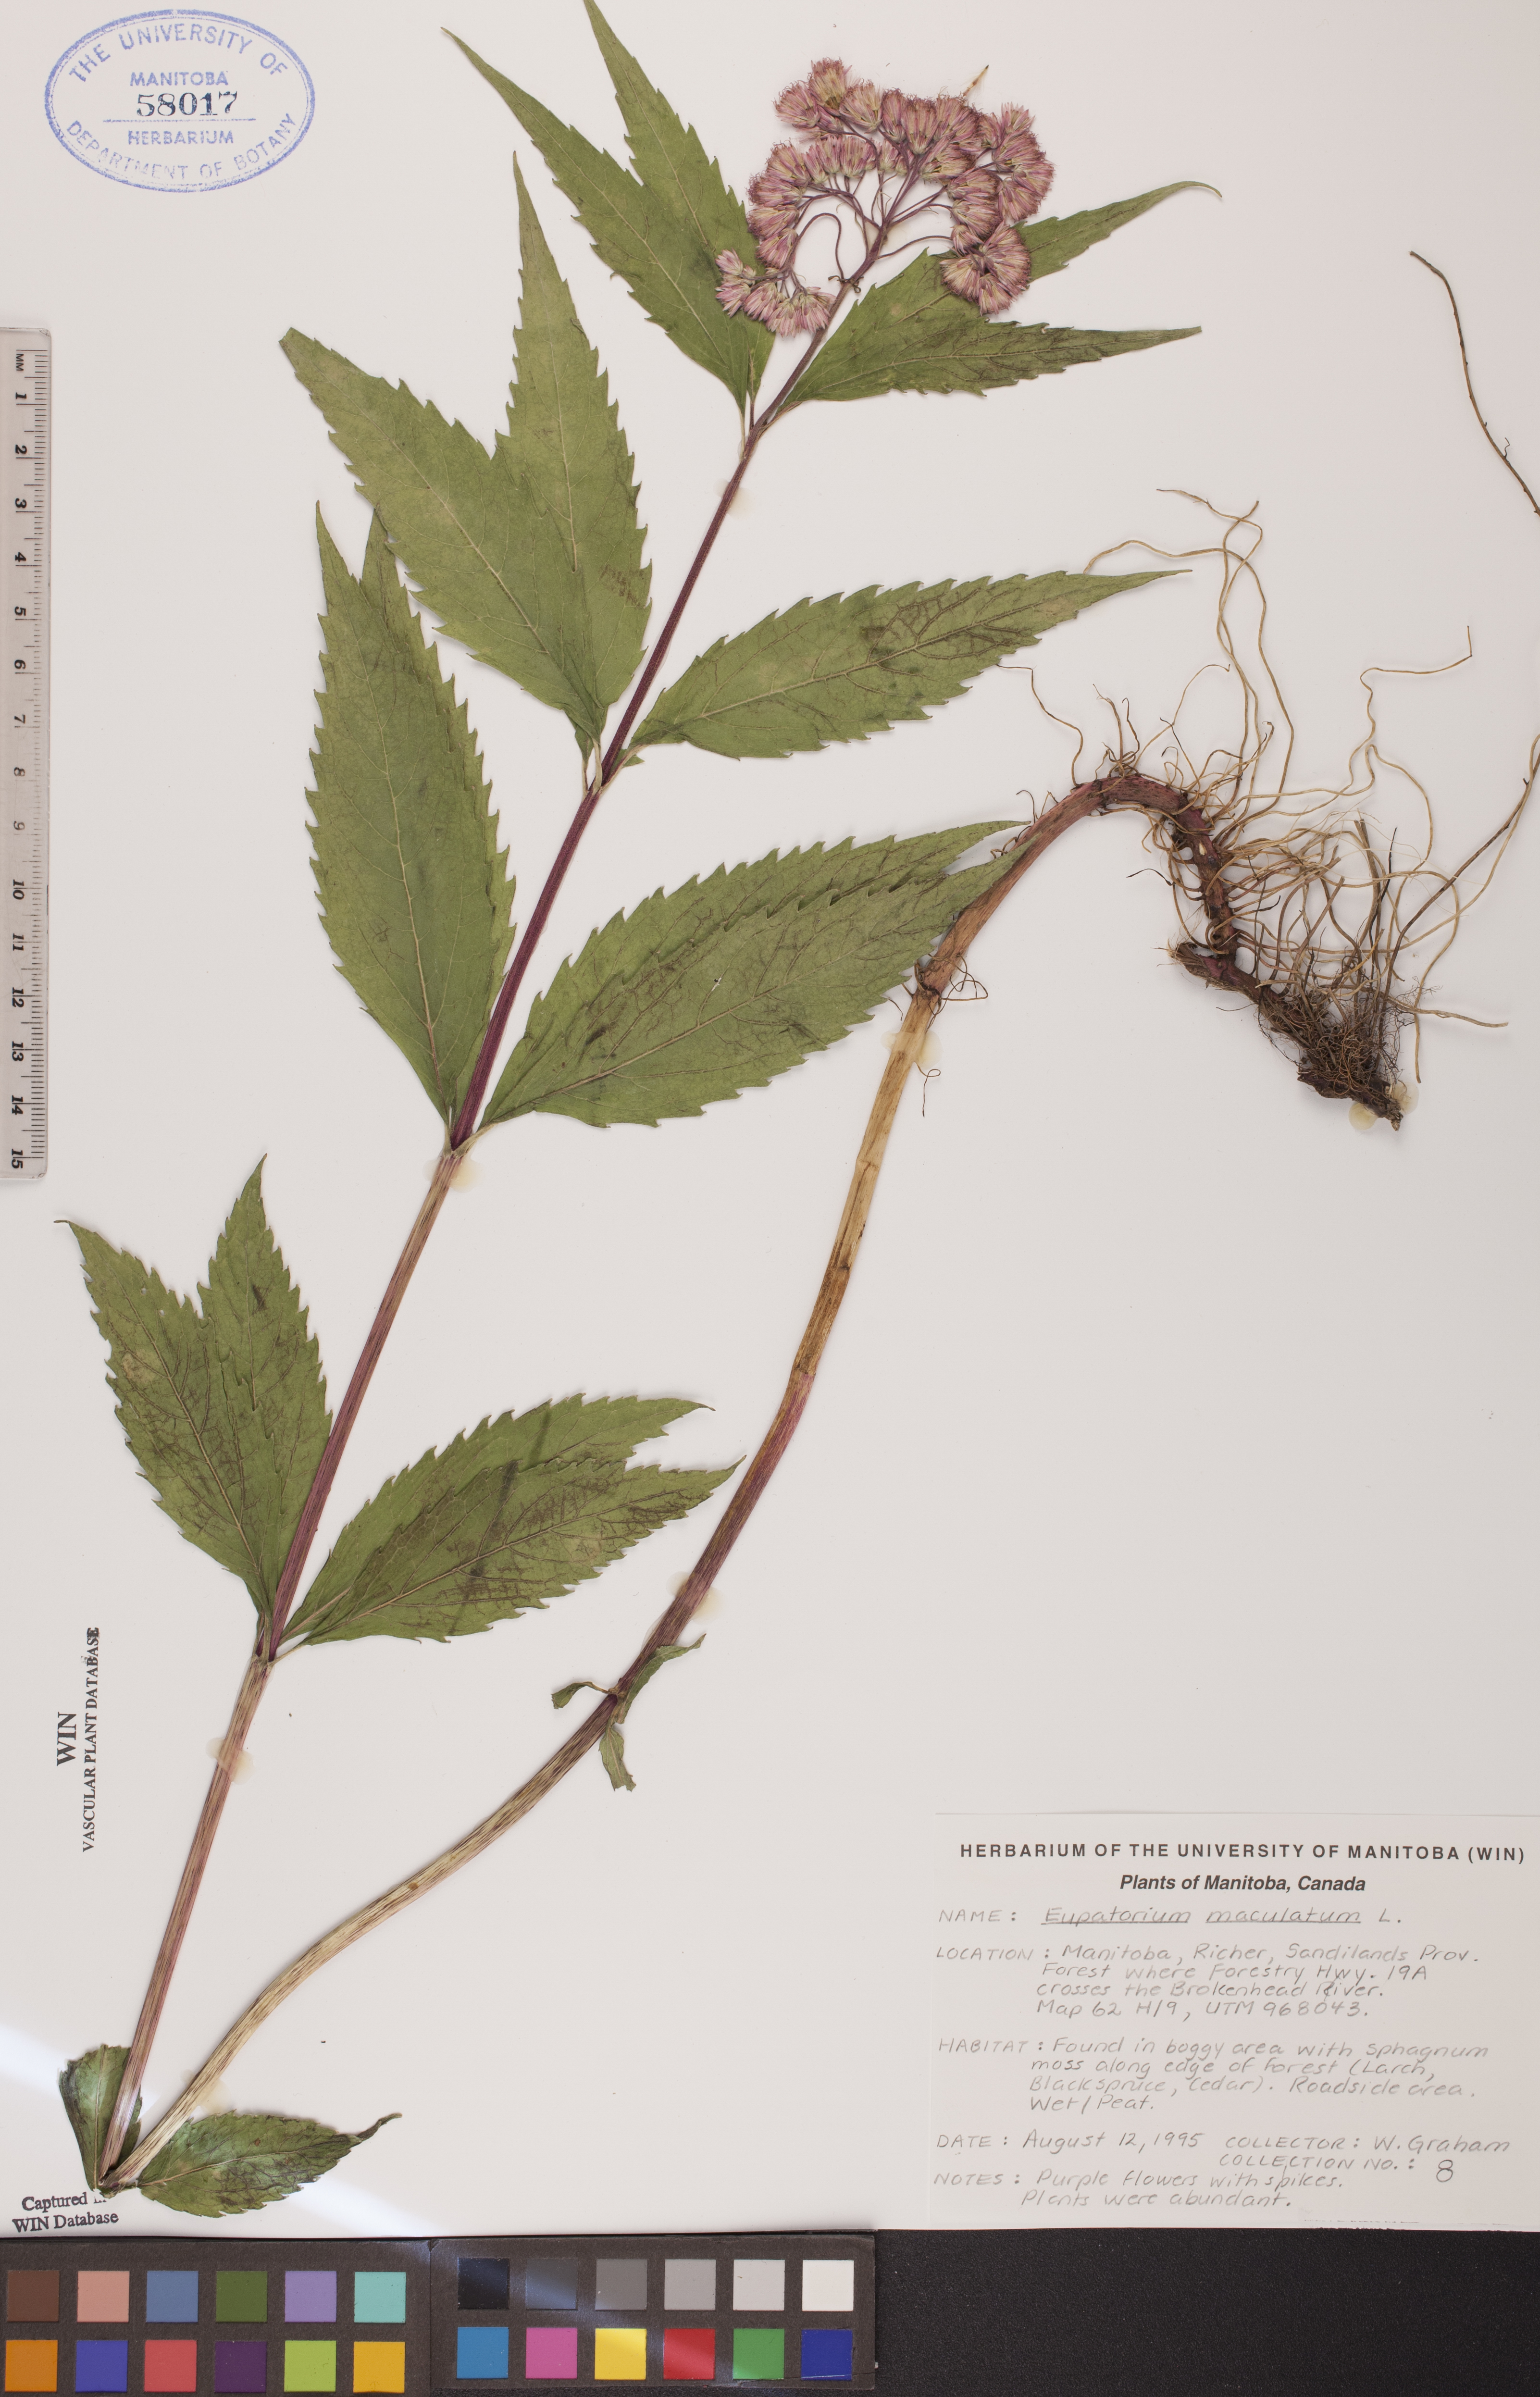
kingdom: Plantae
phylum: Tracheophyta
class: Magnoliopsida
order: Asterales
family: Asteraceae
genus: Eutrochium
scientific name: Eutrochium maculatum
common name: Spotted joe pye weed
